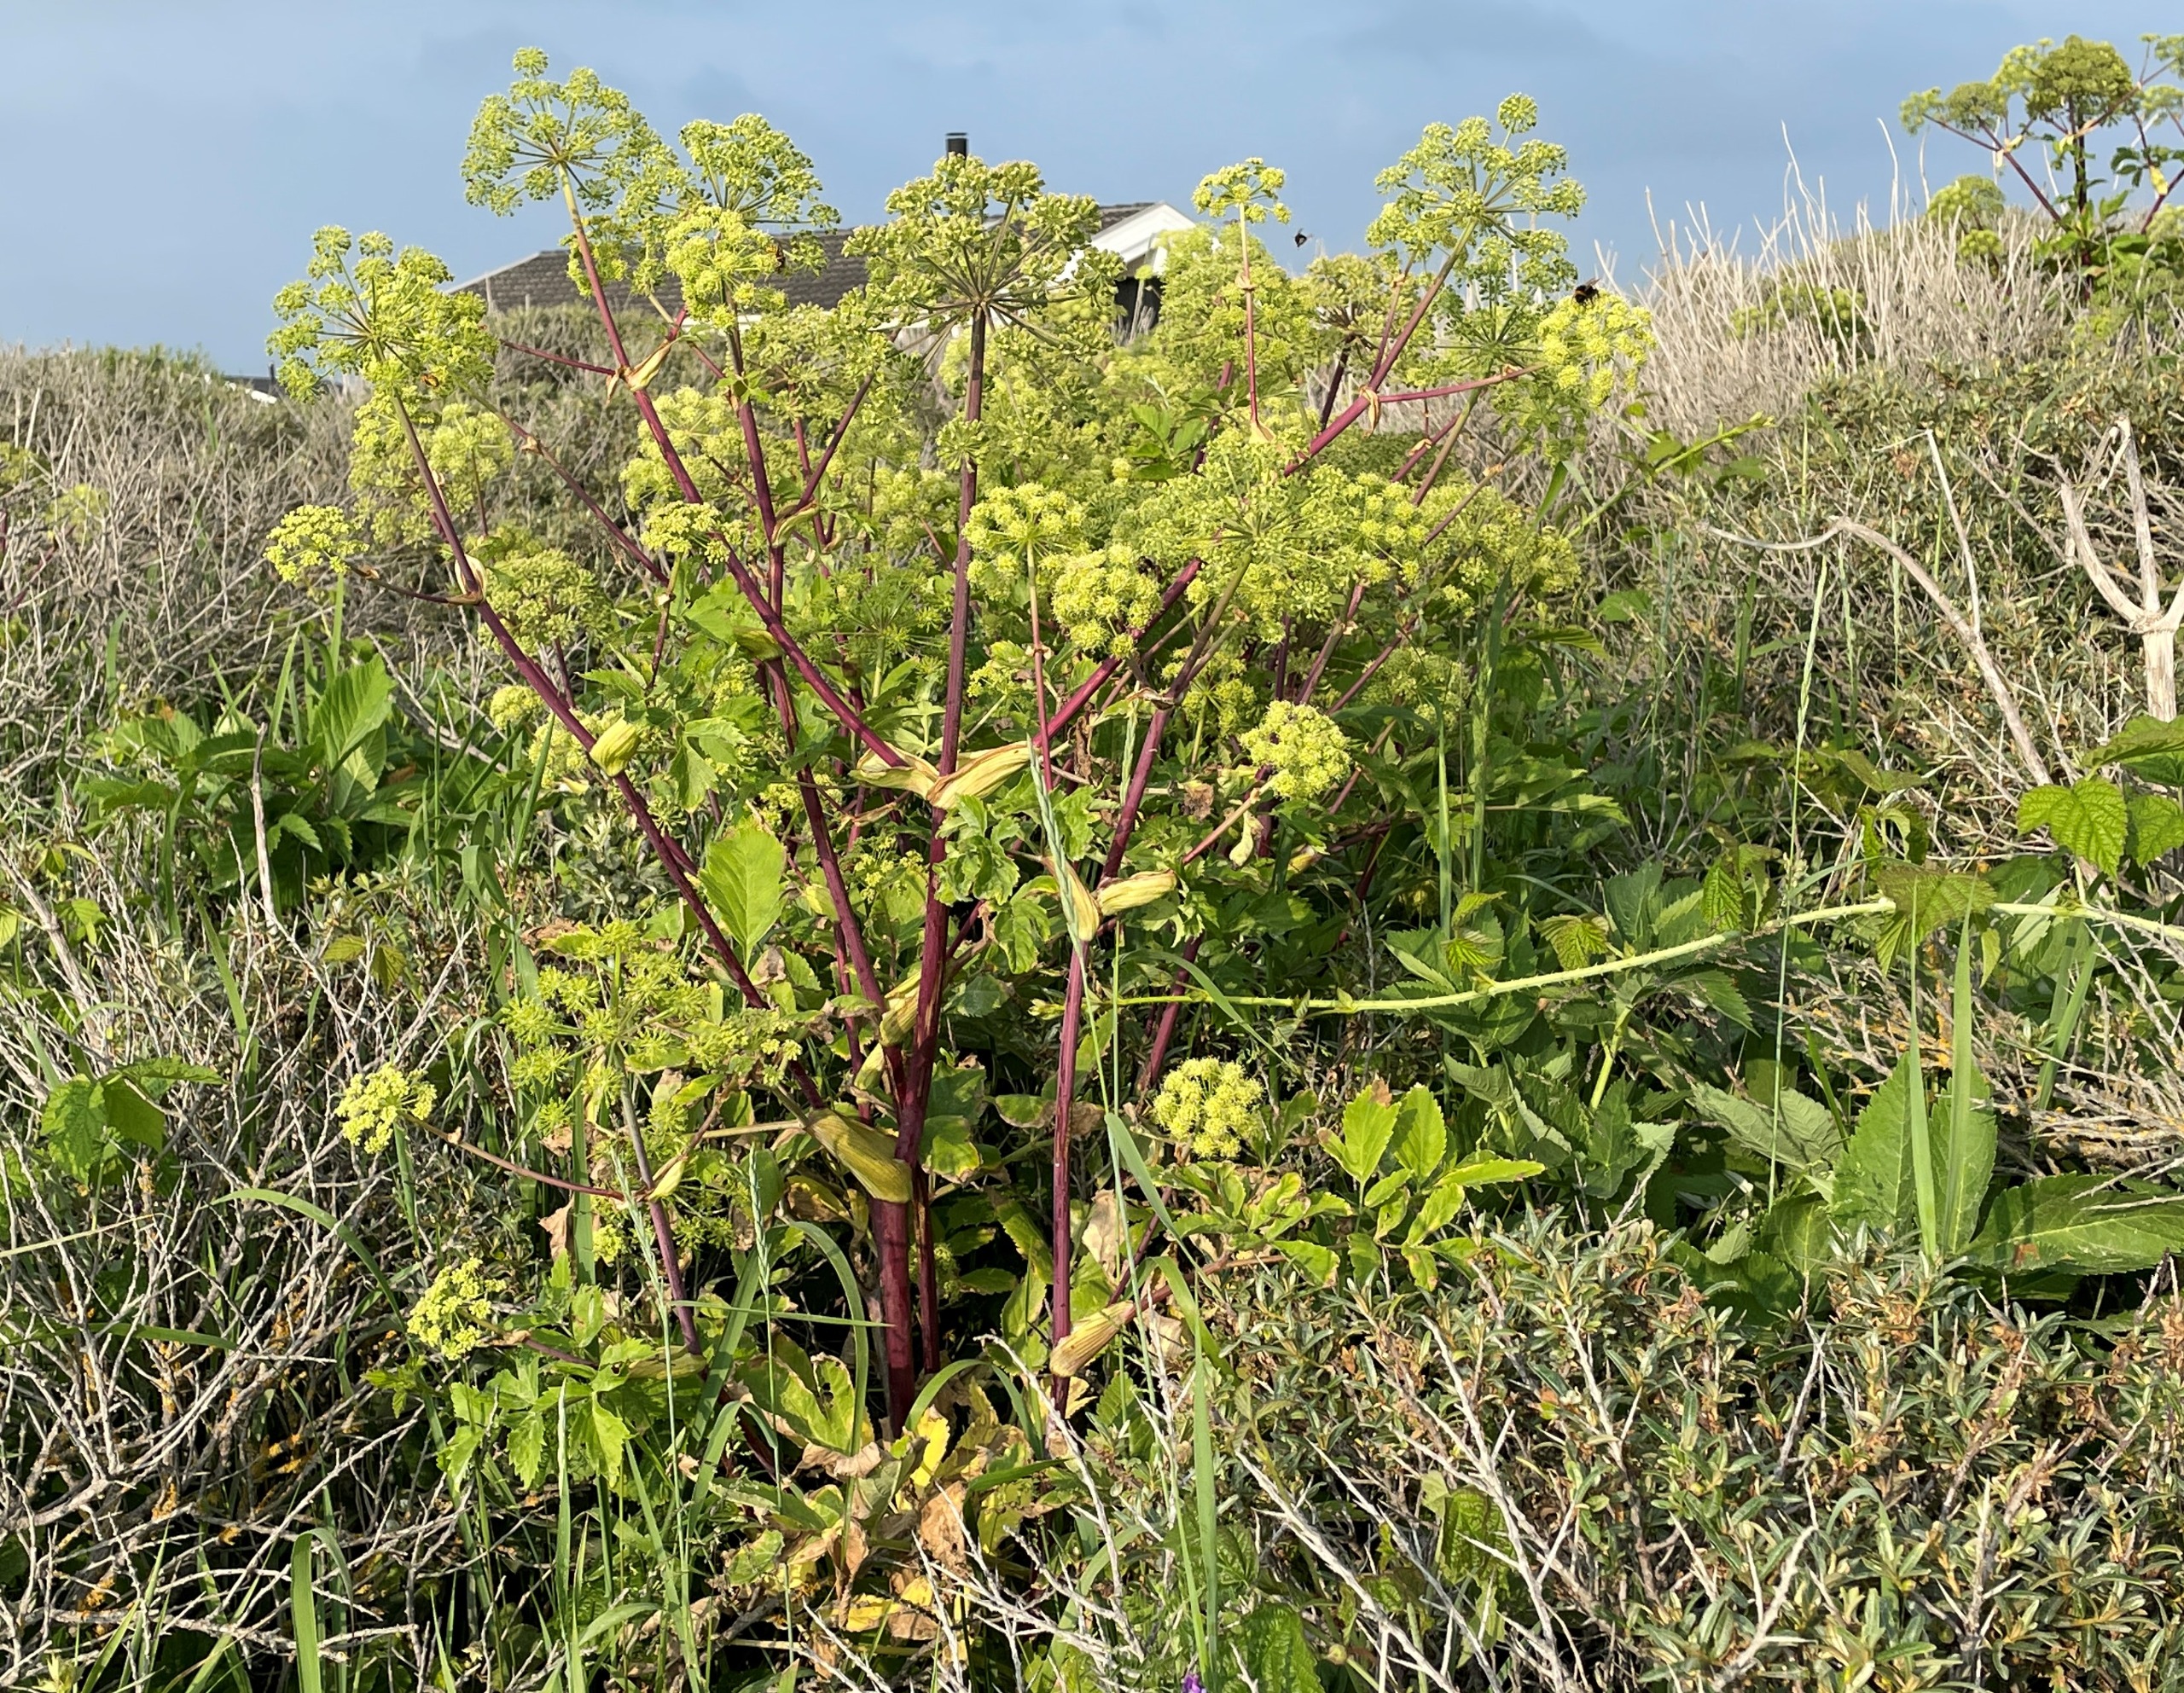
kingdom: Plantae
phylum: Tracheophyta
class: Magnoliopsida
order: Apiales
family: Apiaceae
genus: Angelica
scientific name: Angelica archangelica
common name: Strand-kvan
